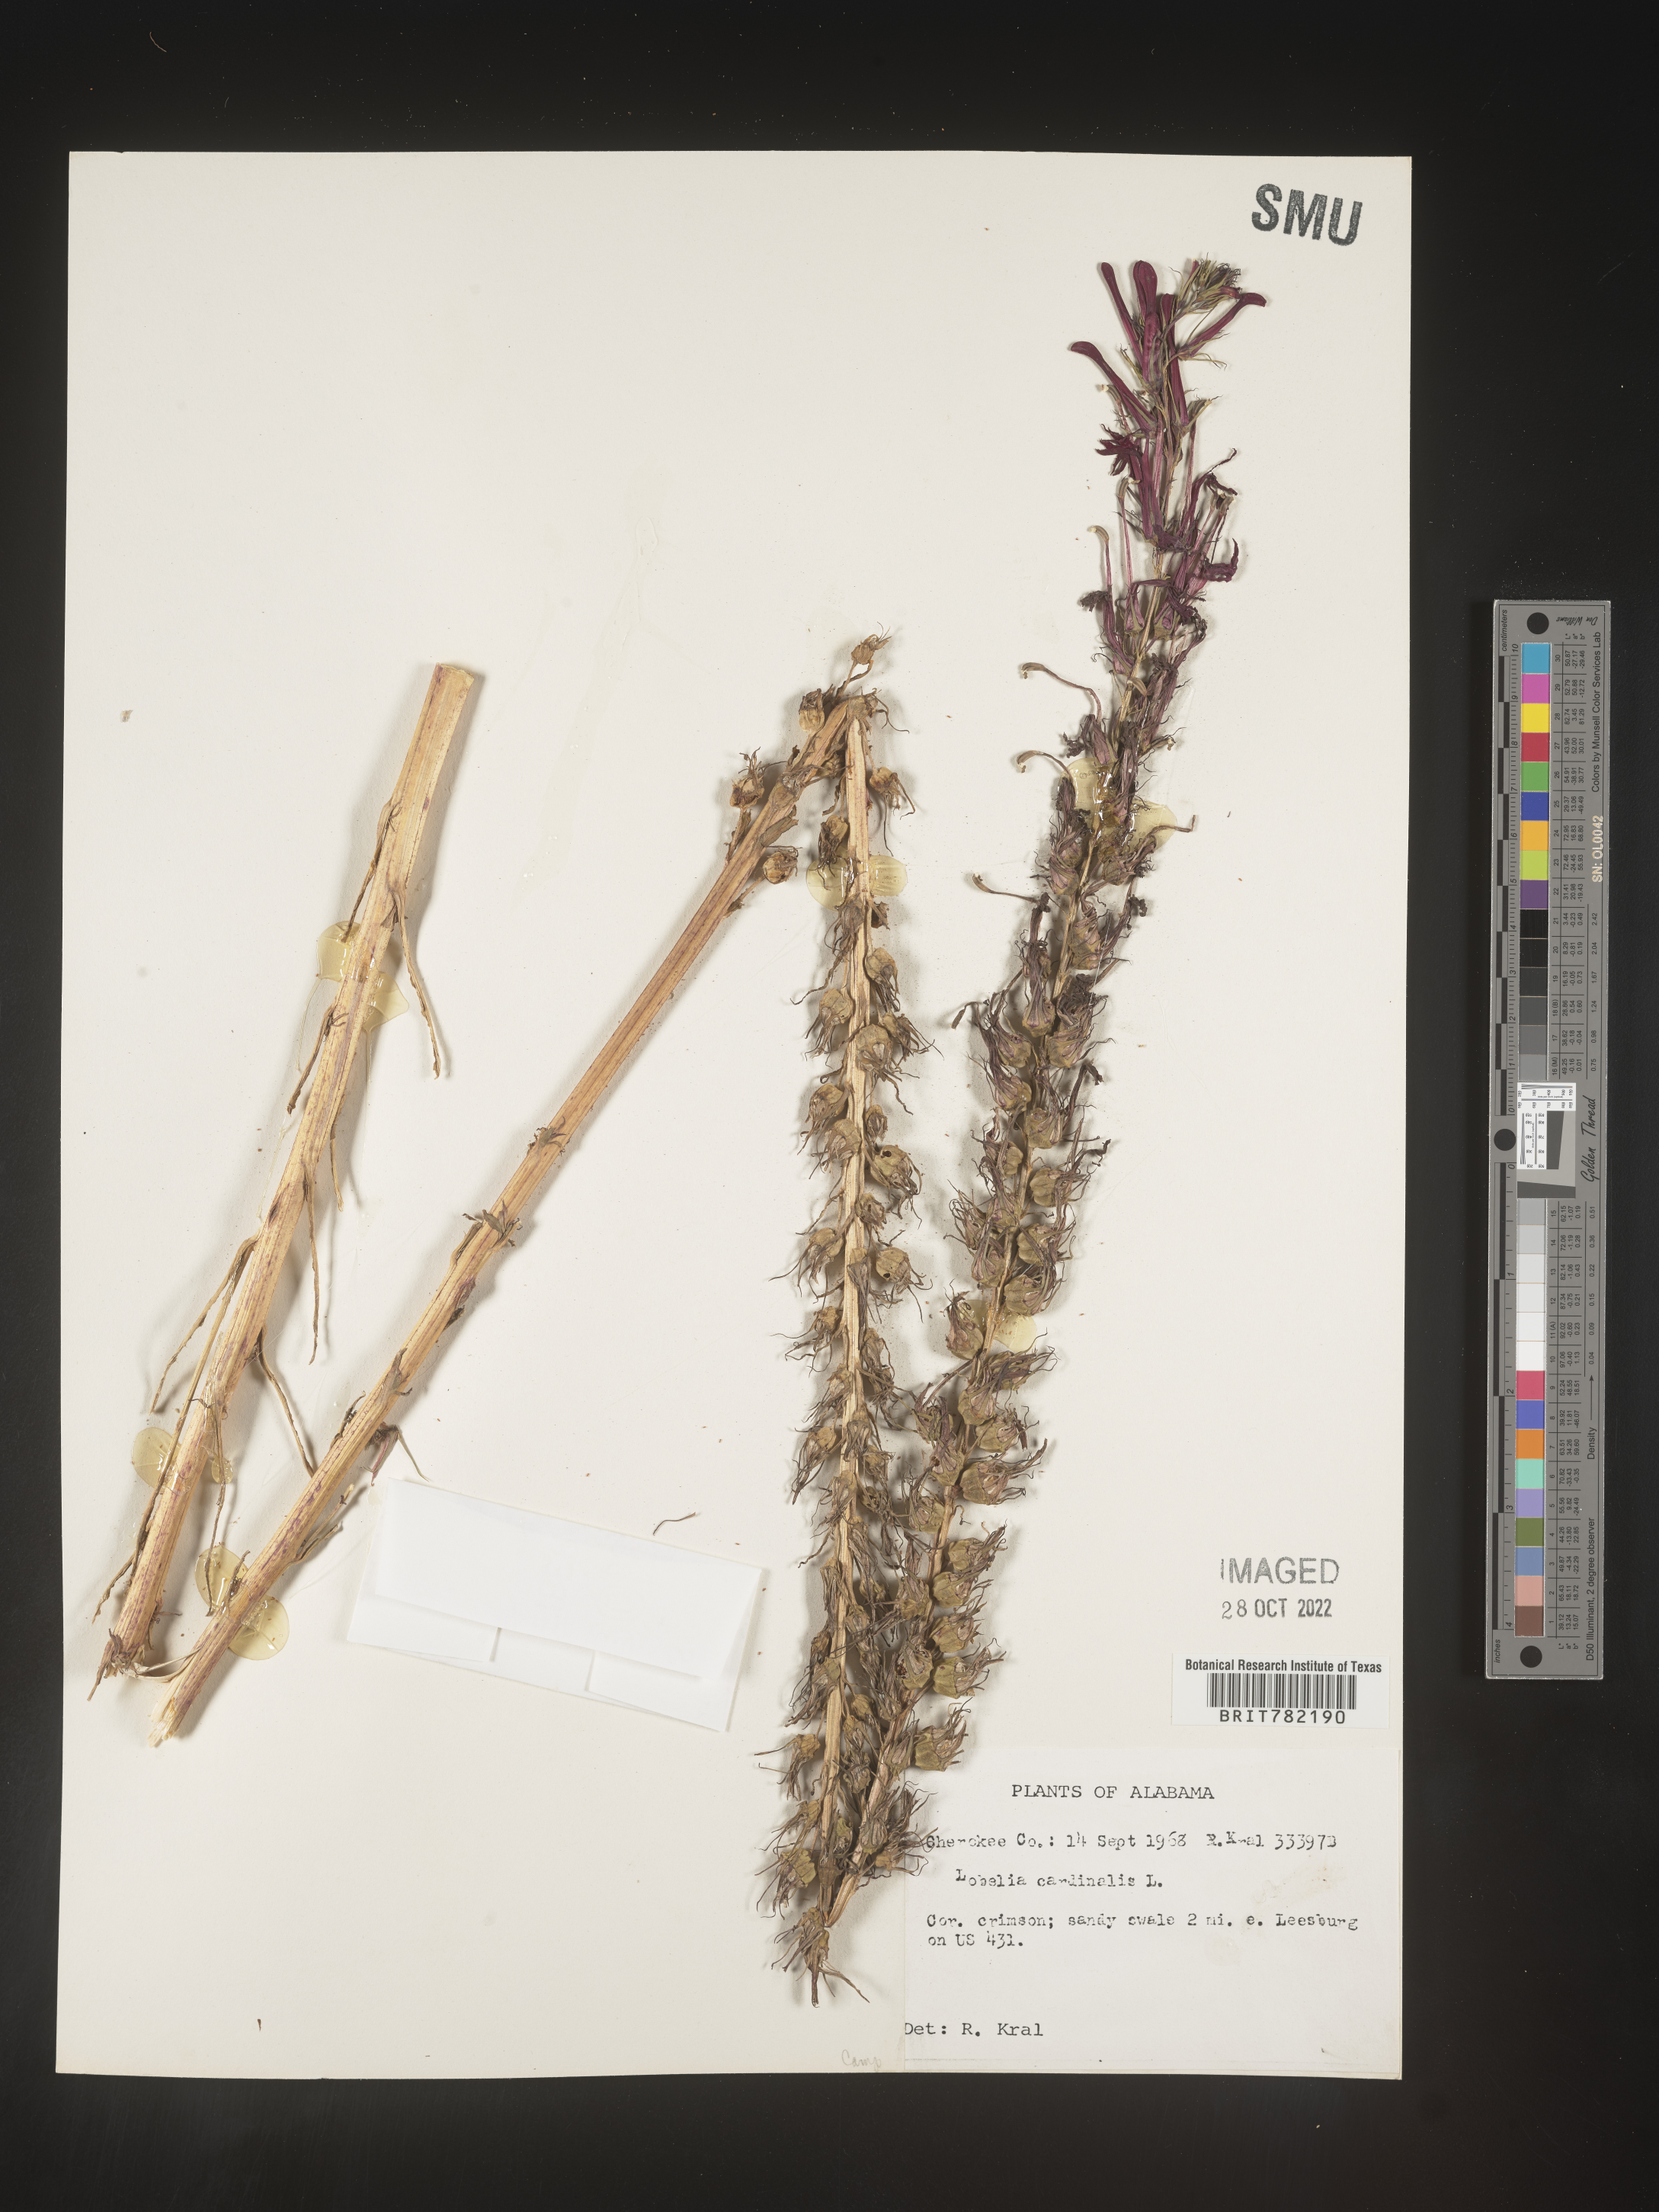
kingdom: Plantae
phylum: Tracheophyta
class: Magnoliopsida
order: Asterales
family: Campanulaceae
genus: Lobelia
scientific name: Lobelia cardinalis
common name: Cardinal flower
